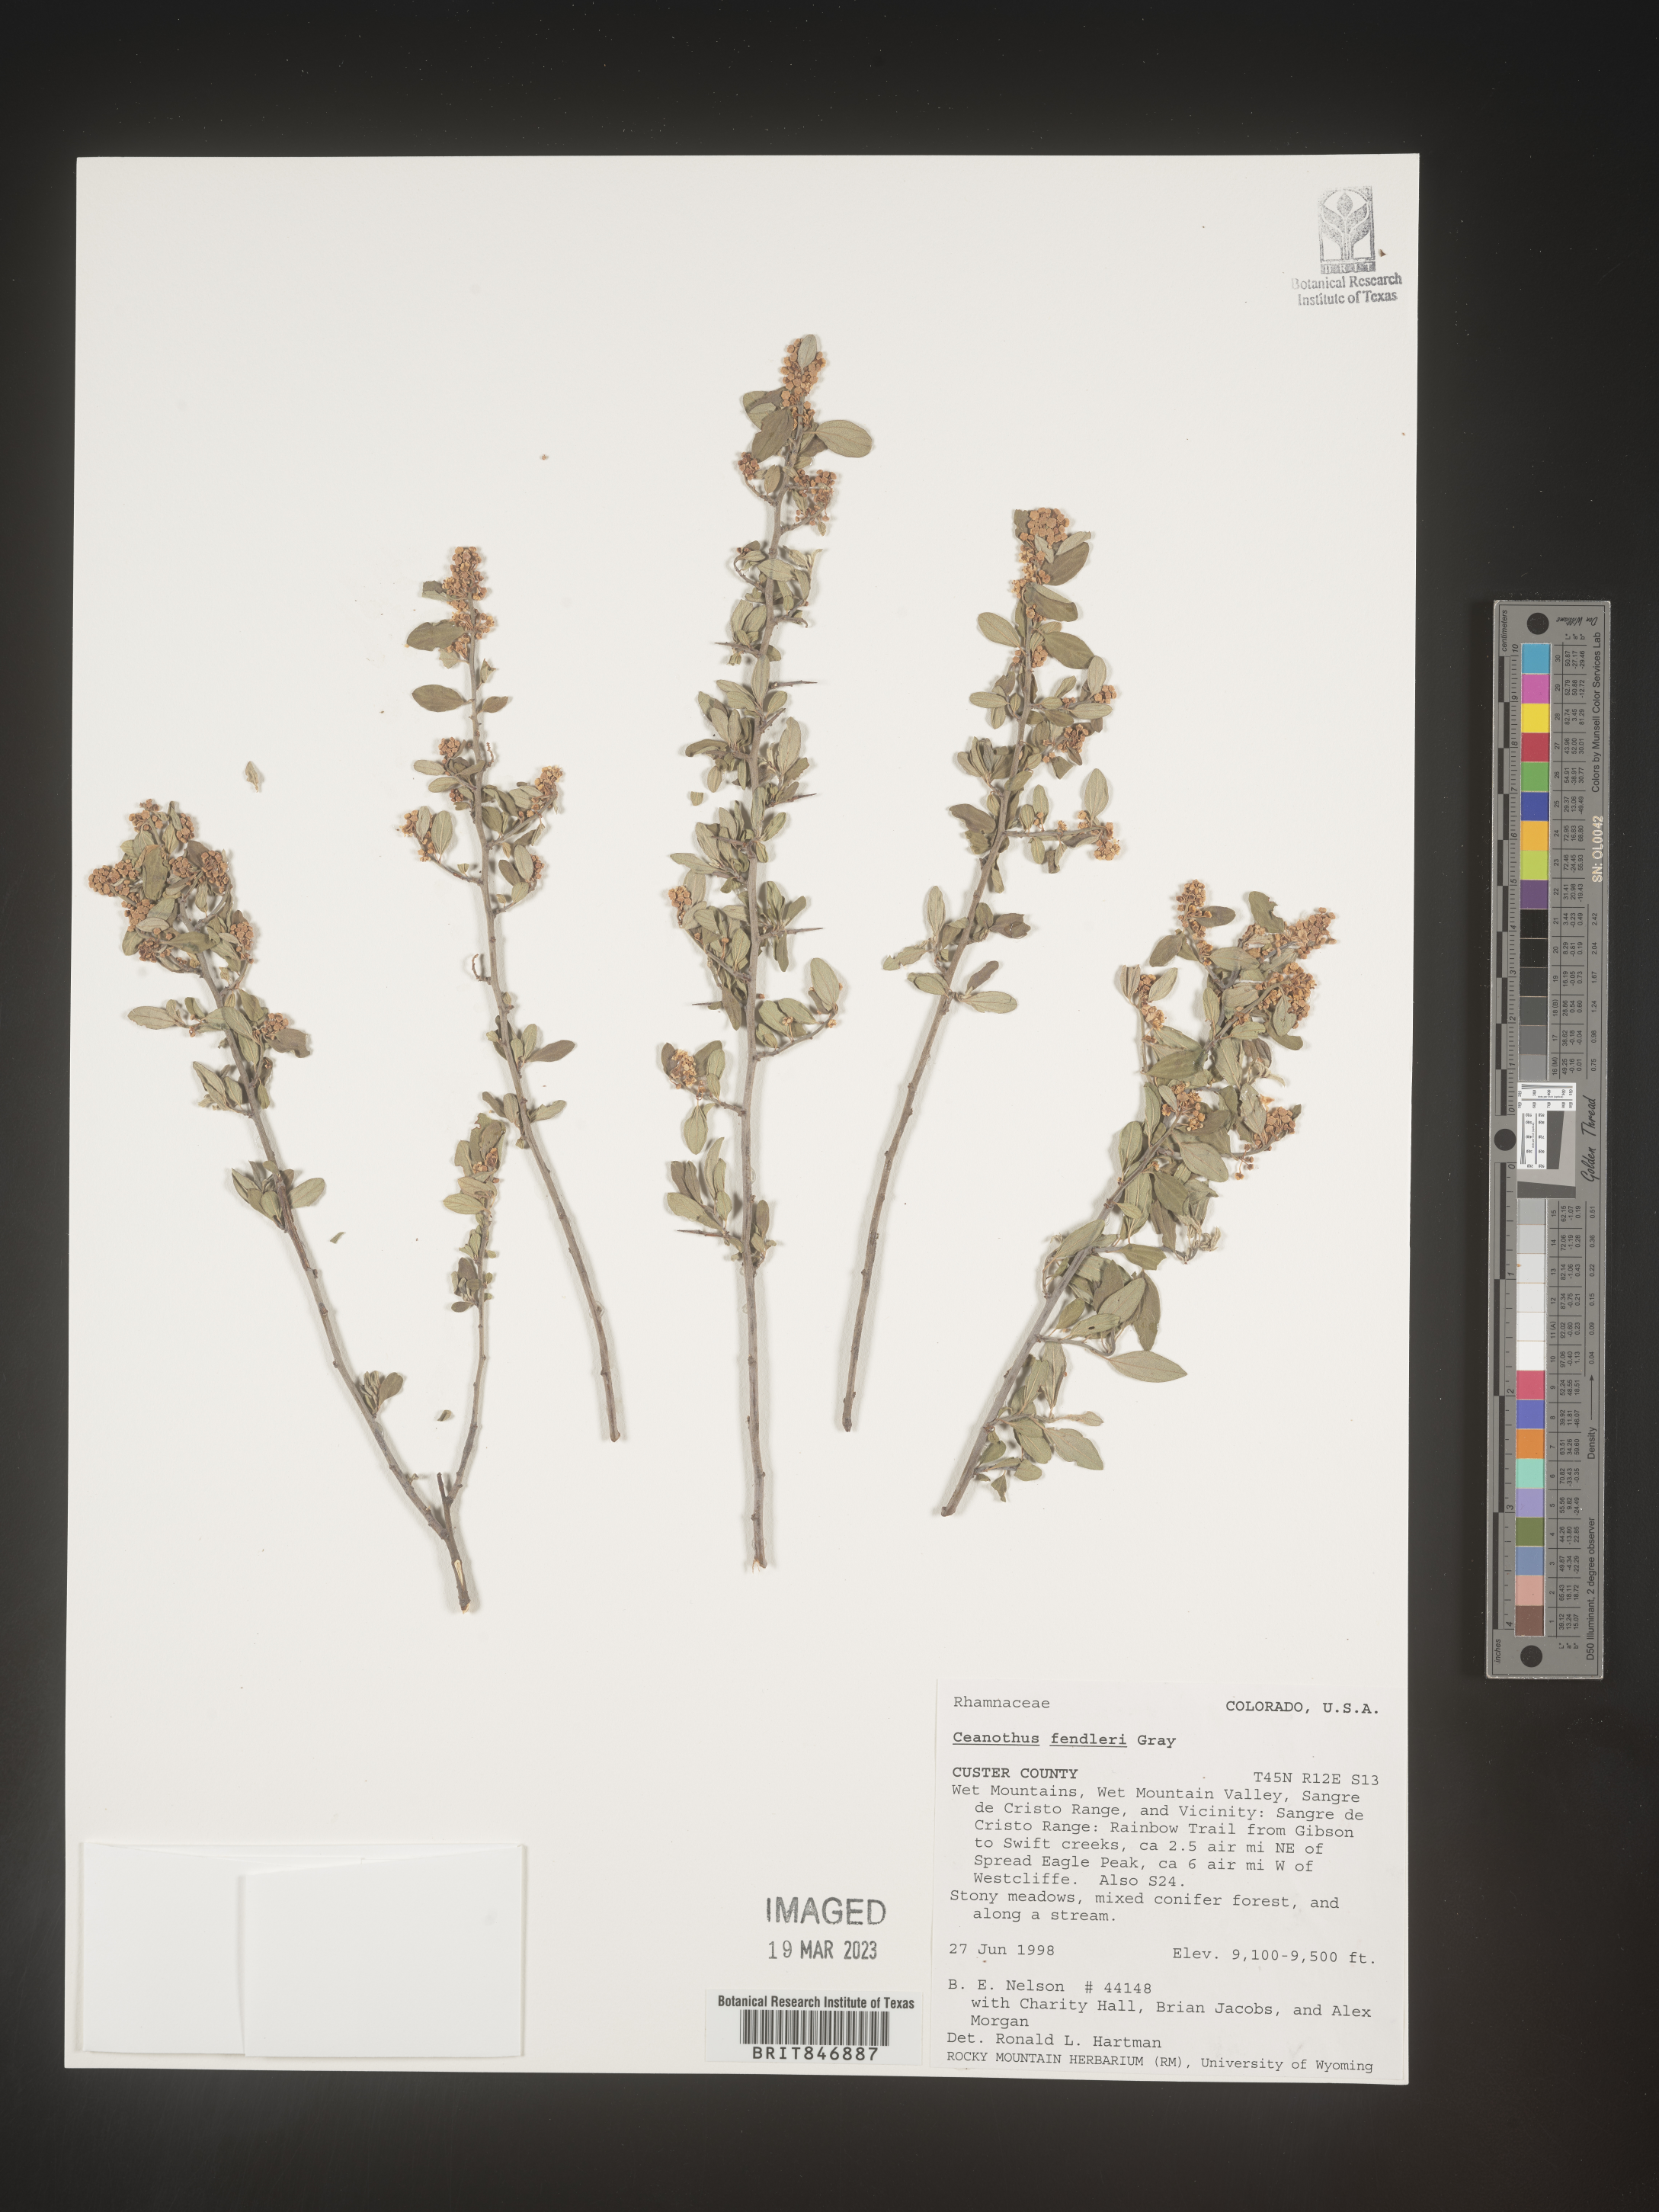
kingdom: Plantae
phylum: Tracheophyta
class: Magnoliopsida
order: Rosales
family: Rhamnaceae
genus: Ceanothus
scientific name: Ceanothus fendleri
